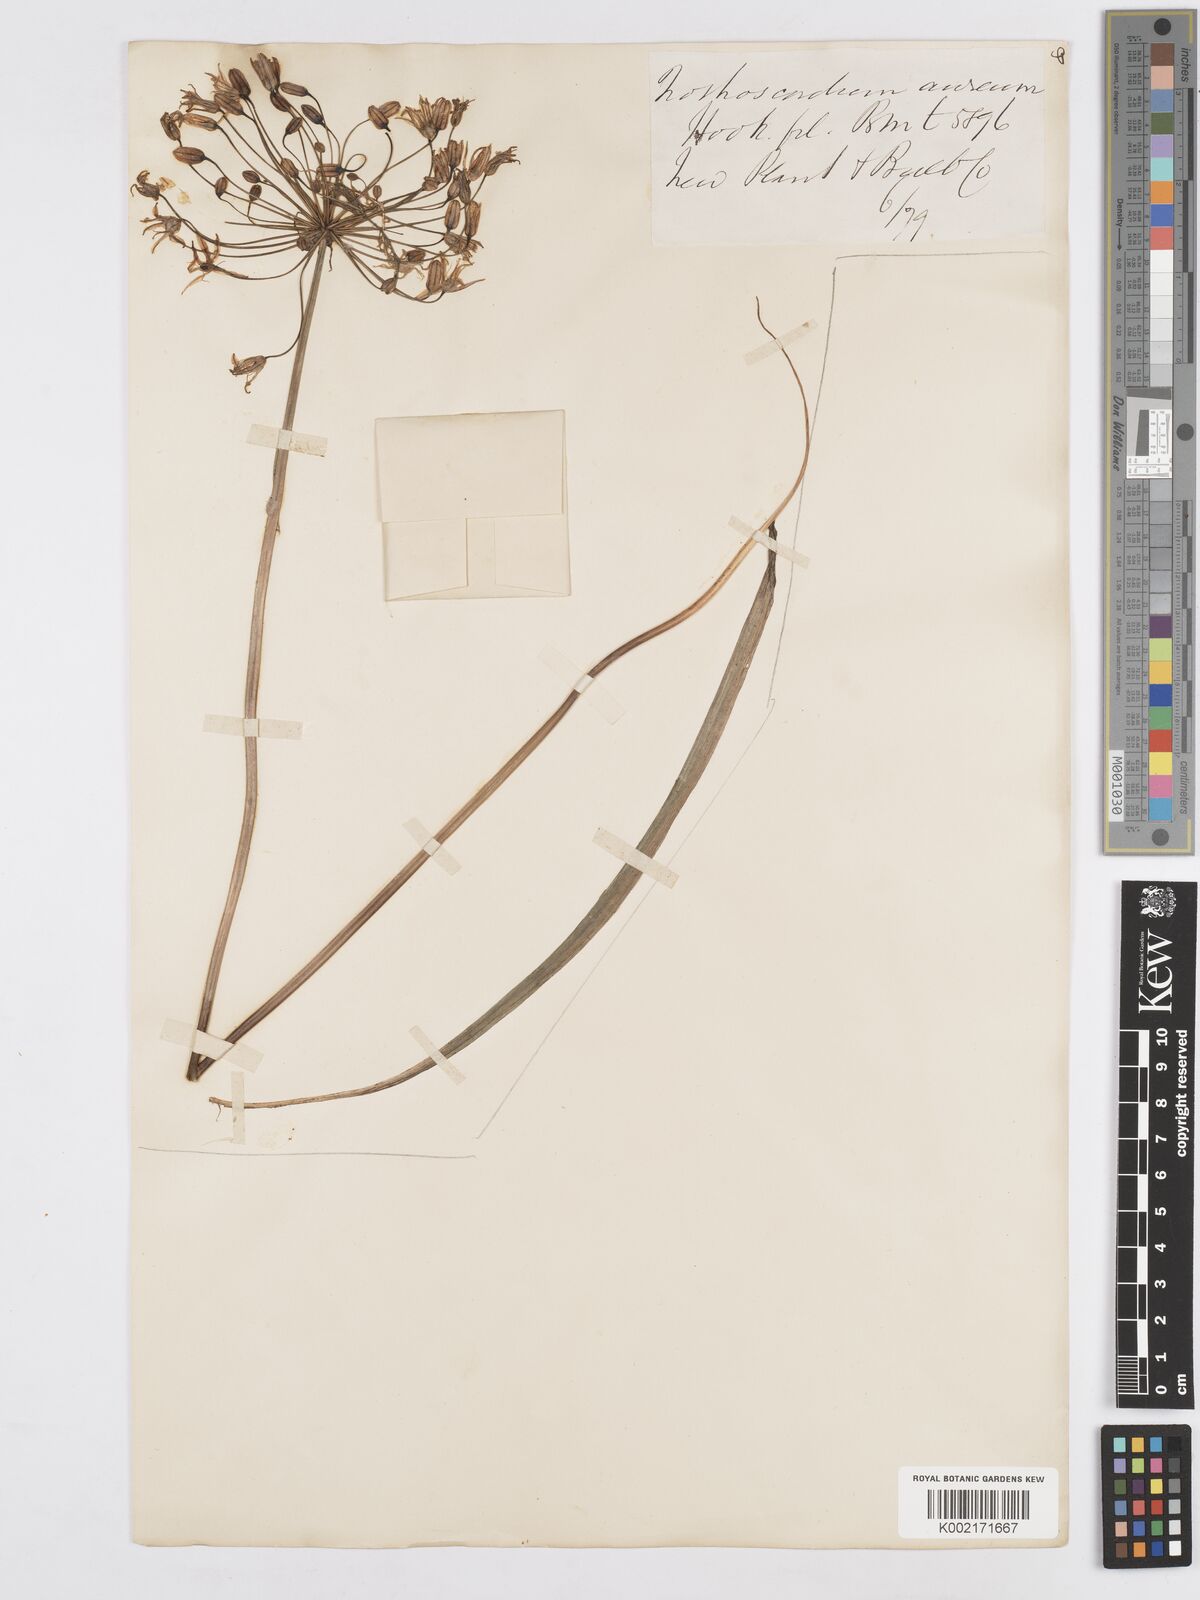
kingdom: Plantae
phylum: Tracheophyta
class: Liliopsida
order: Asparagales
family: Asparagaceae
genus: Bloomeria
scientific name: Bloomeria crocea
